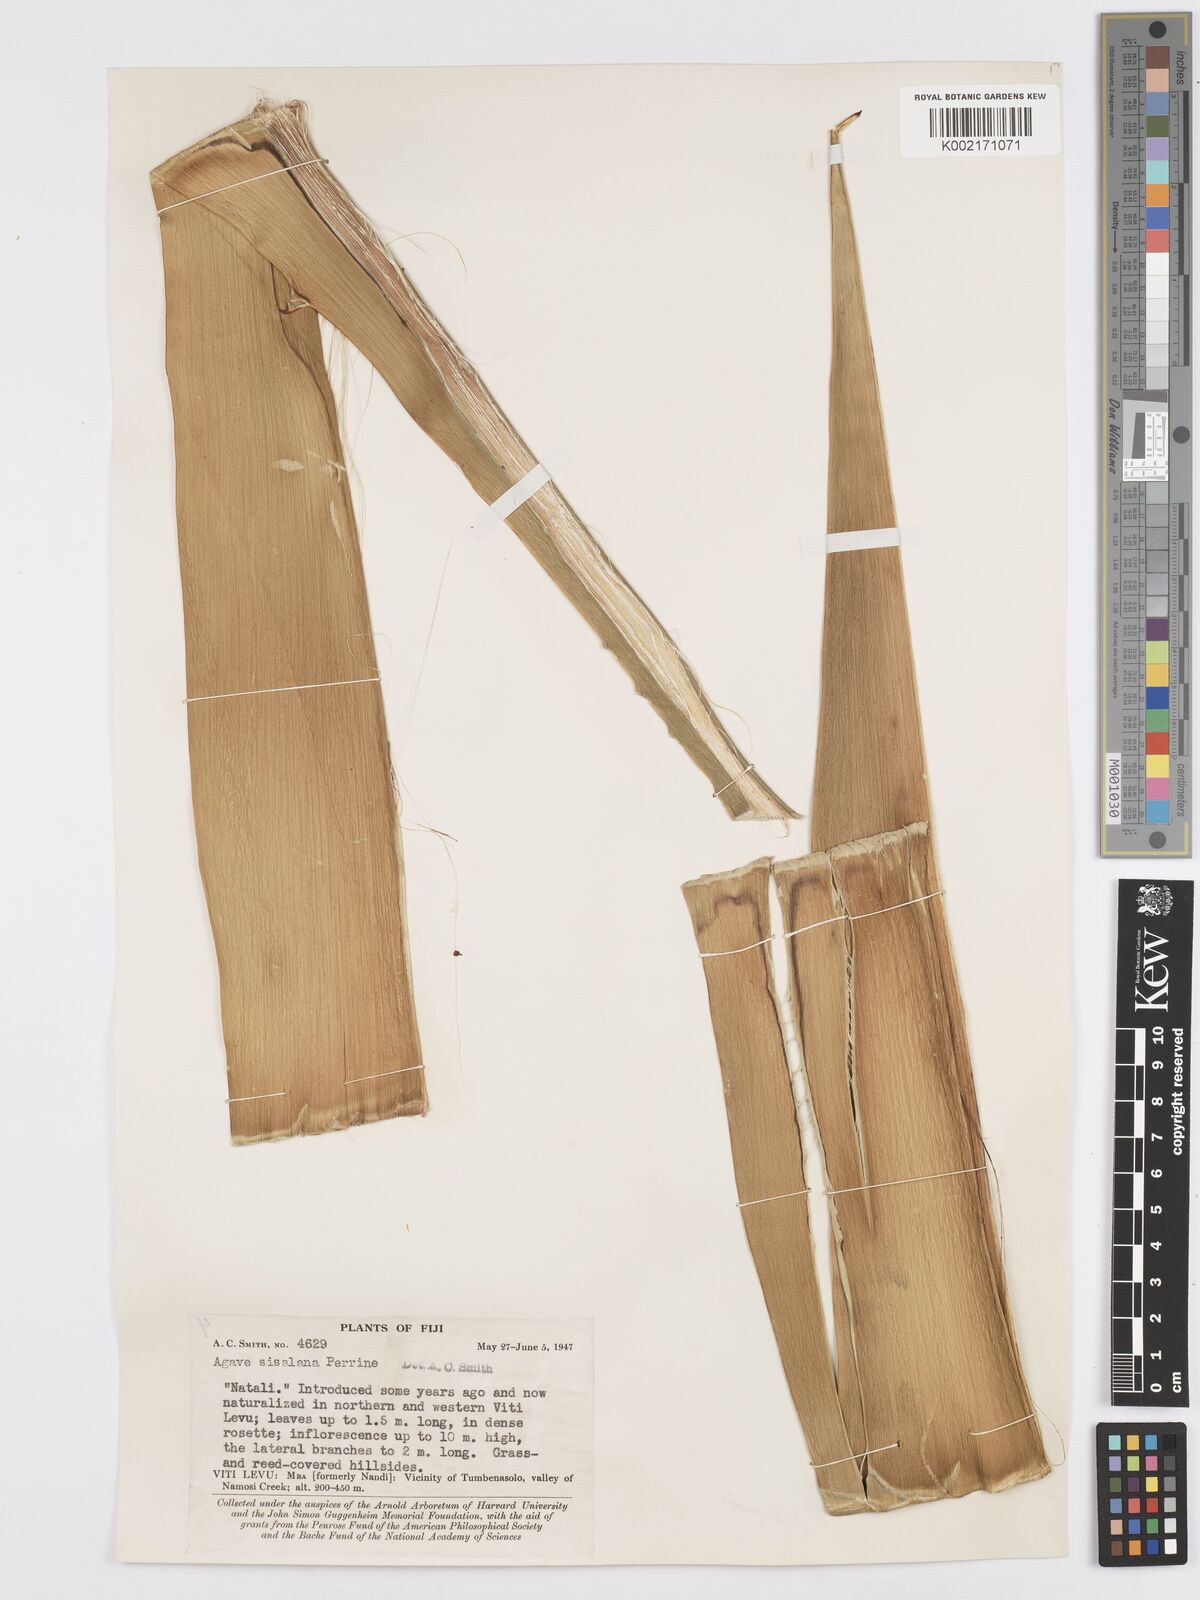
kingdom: Plantae
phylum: Tracheophyta
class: Liliopsida
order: Asparagales
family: Asparagaceae
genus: Agave
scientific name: Agave sisalana
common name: Sisal hemp
